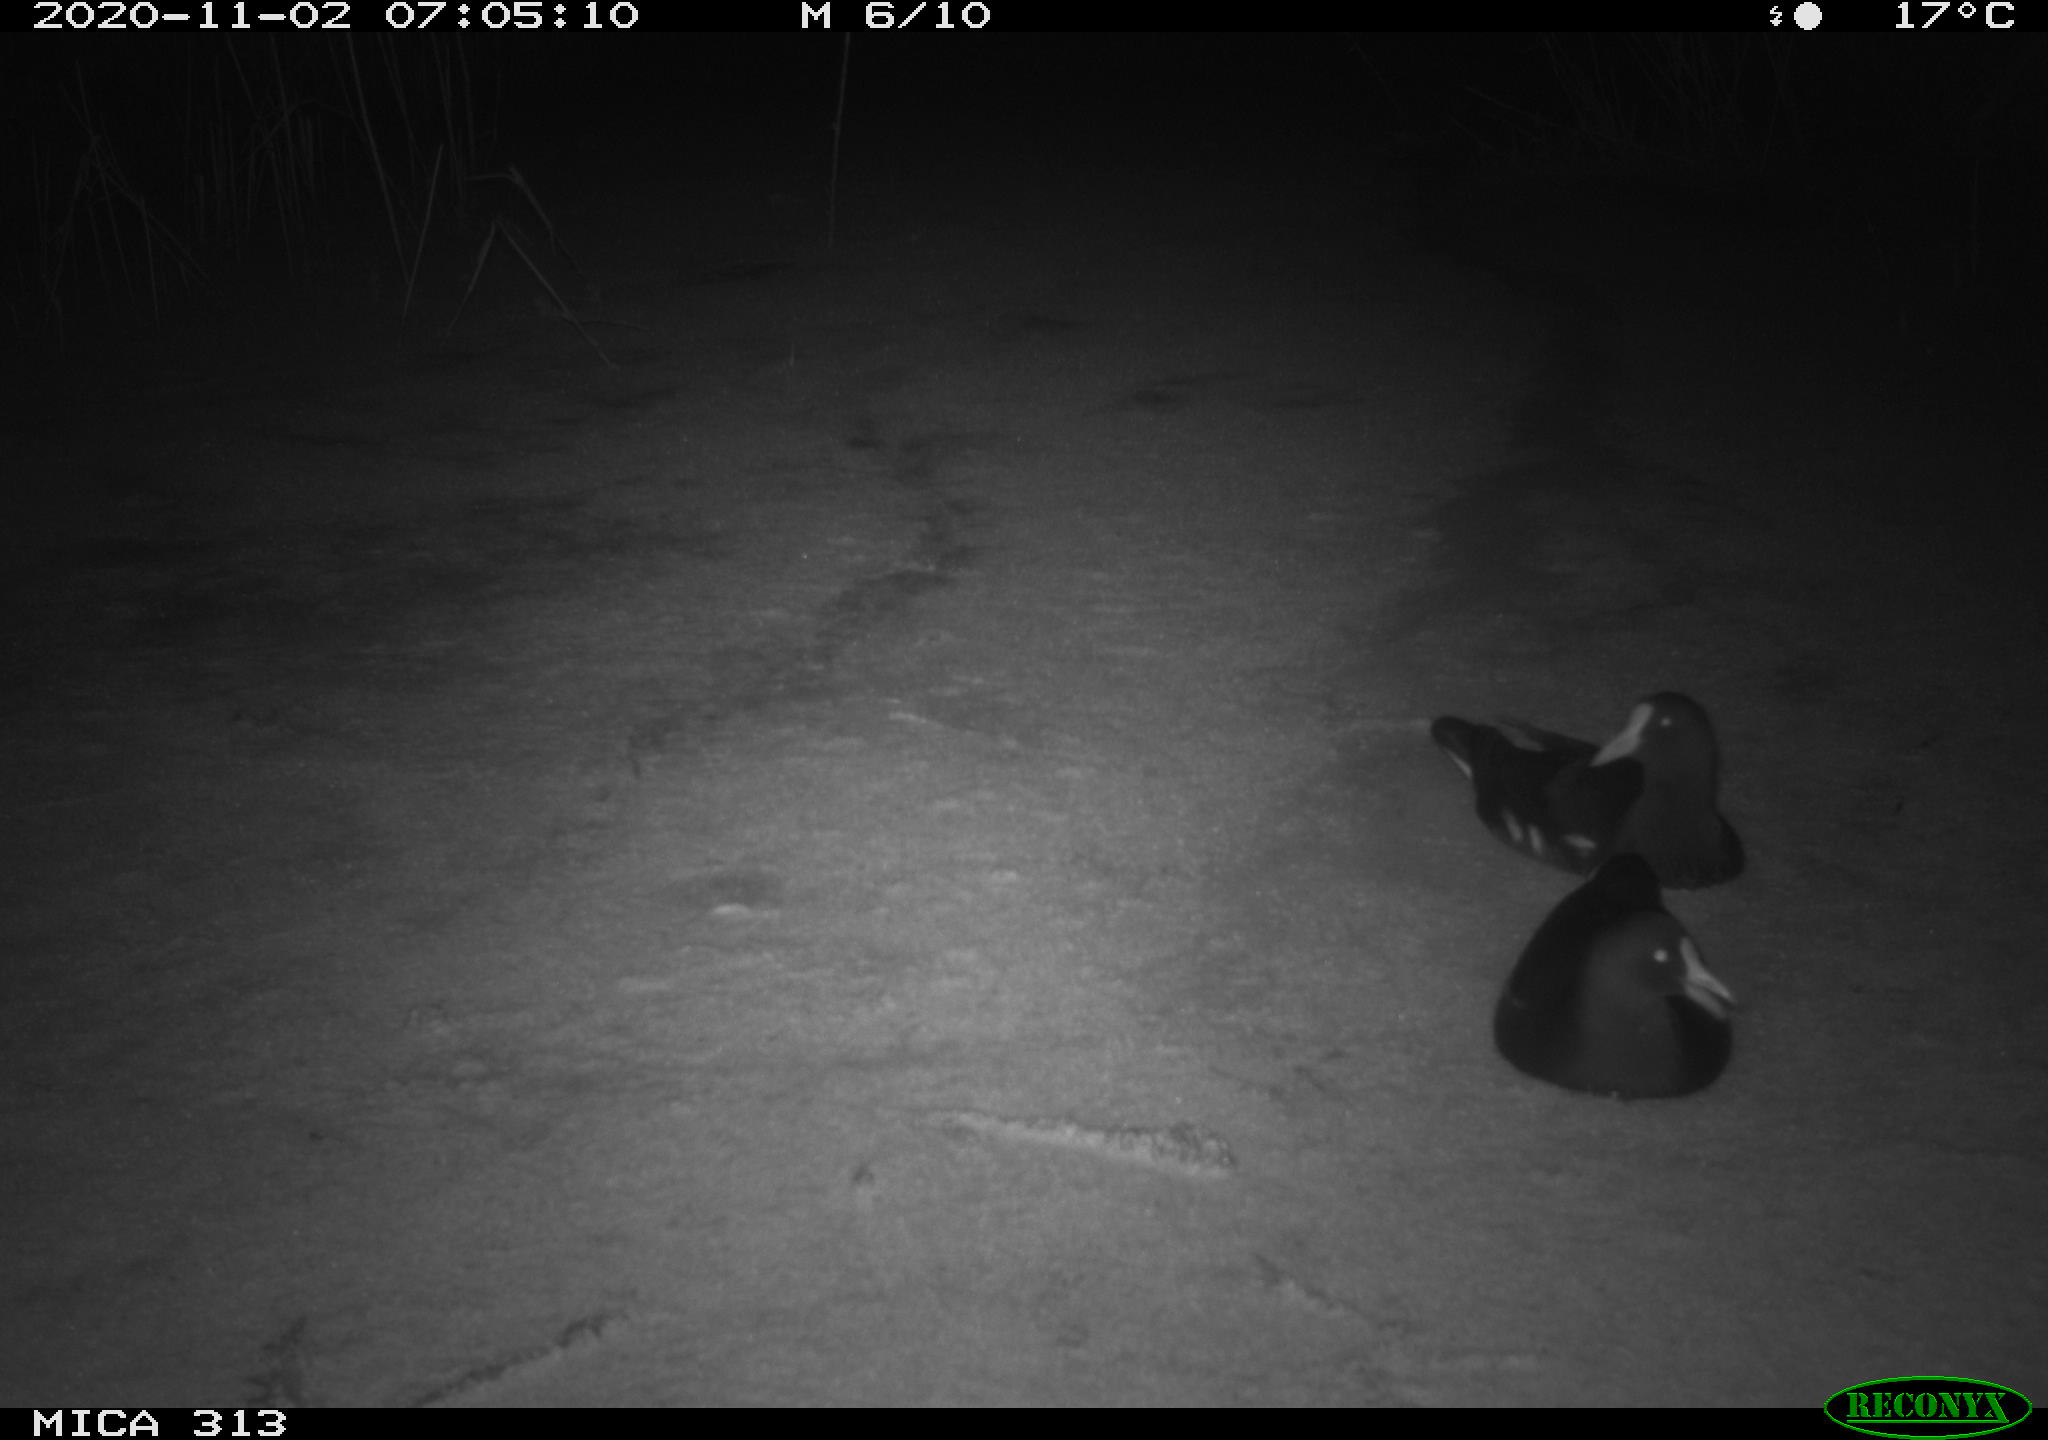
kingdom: Animalia
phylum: Chordata
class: Aves
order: Gruiformes
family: Rallidae
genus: Gallinula
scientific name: Gallinula chloropus
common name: Common moorhen
